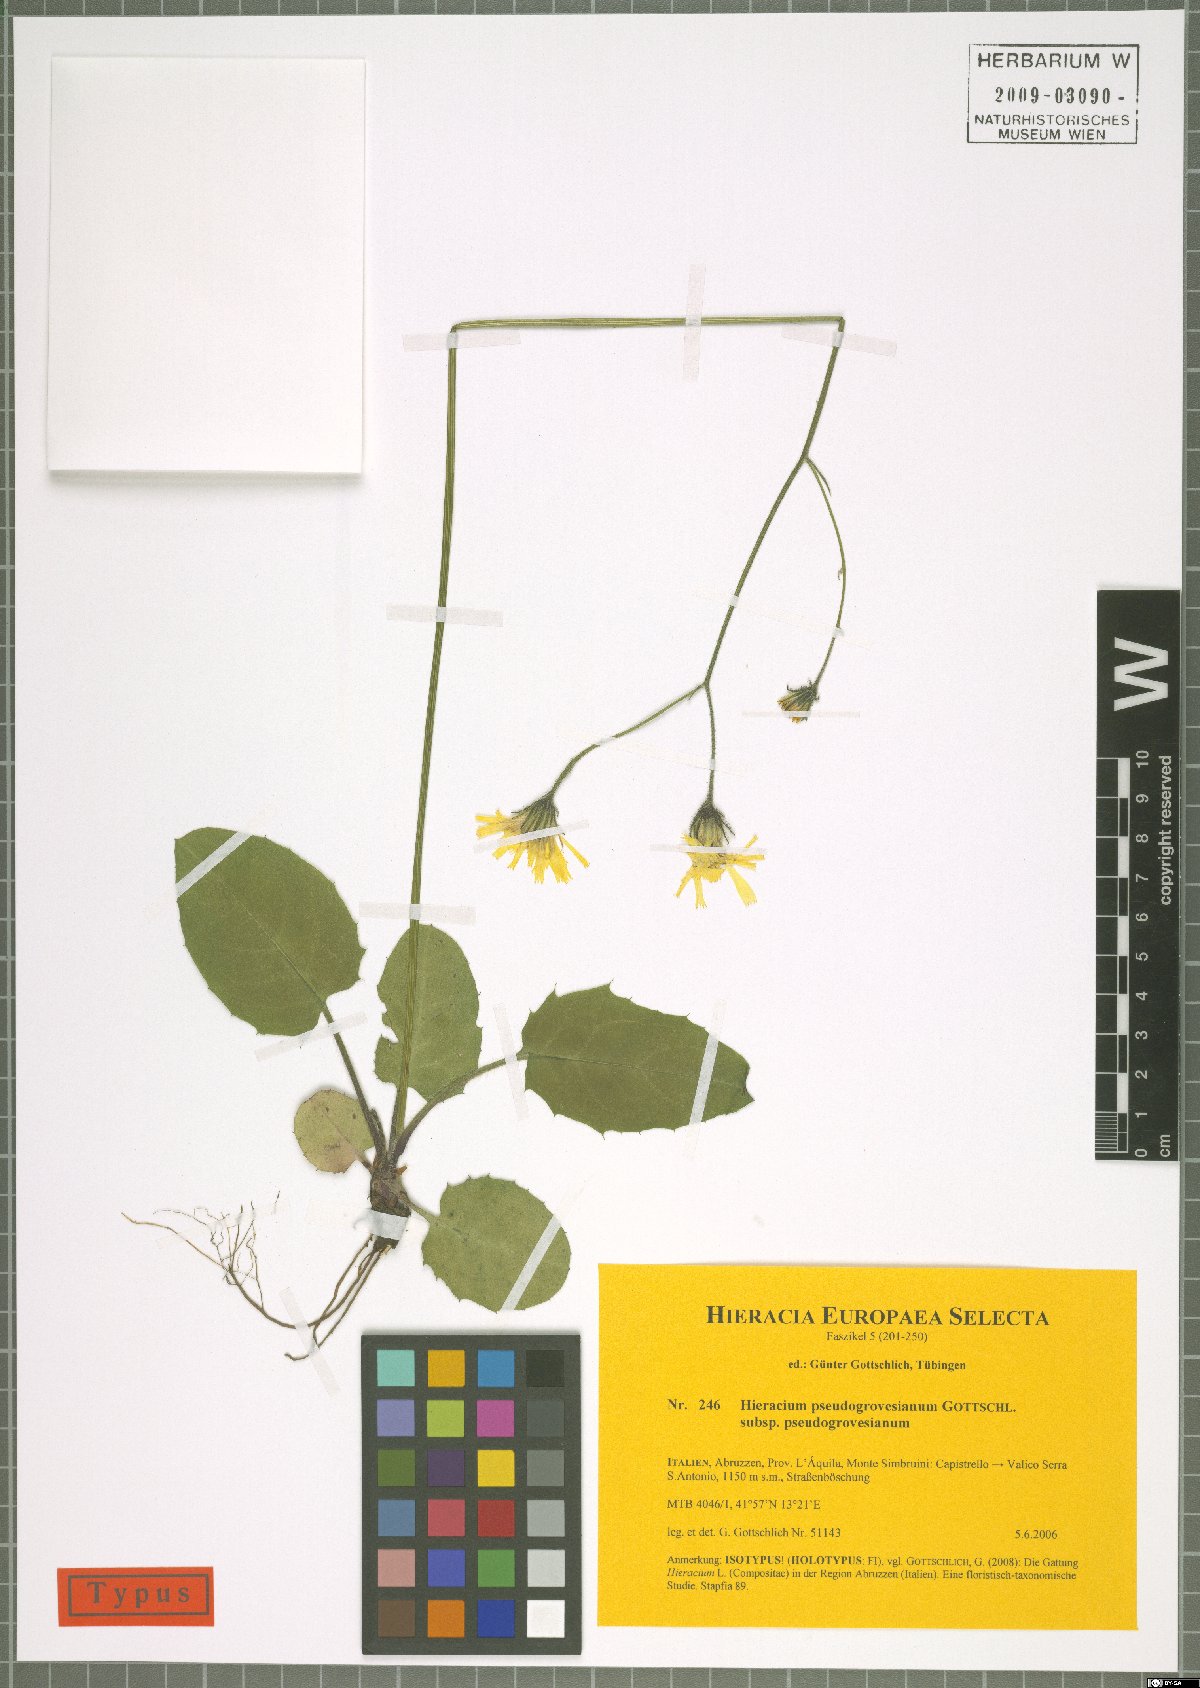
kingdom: Plantae
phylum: Tracheophyta
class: Magnoliopsida
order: Asterales
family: Asteraceae
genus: Hieracium
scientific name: Hieracium pseudogrovesianum
